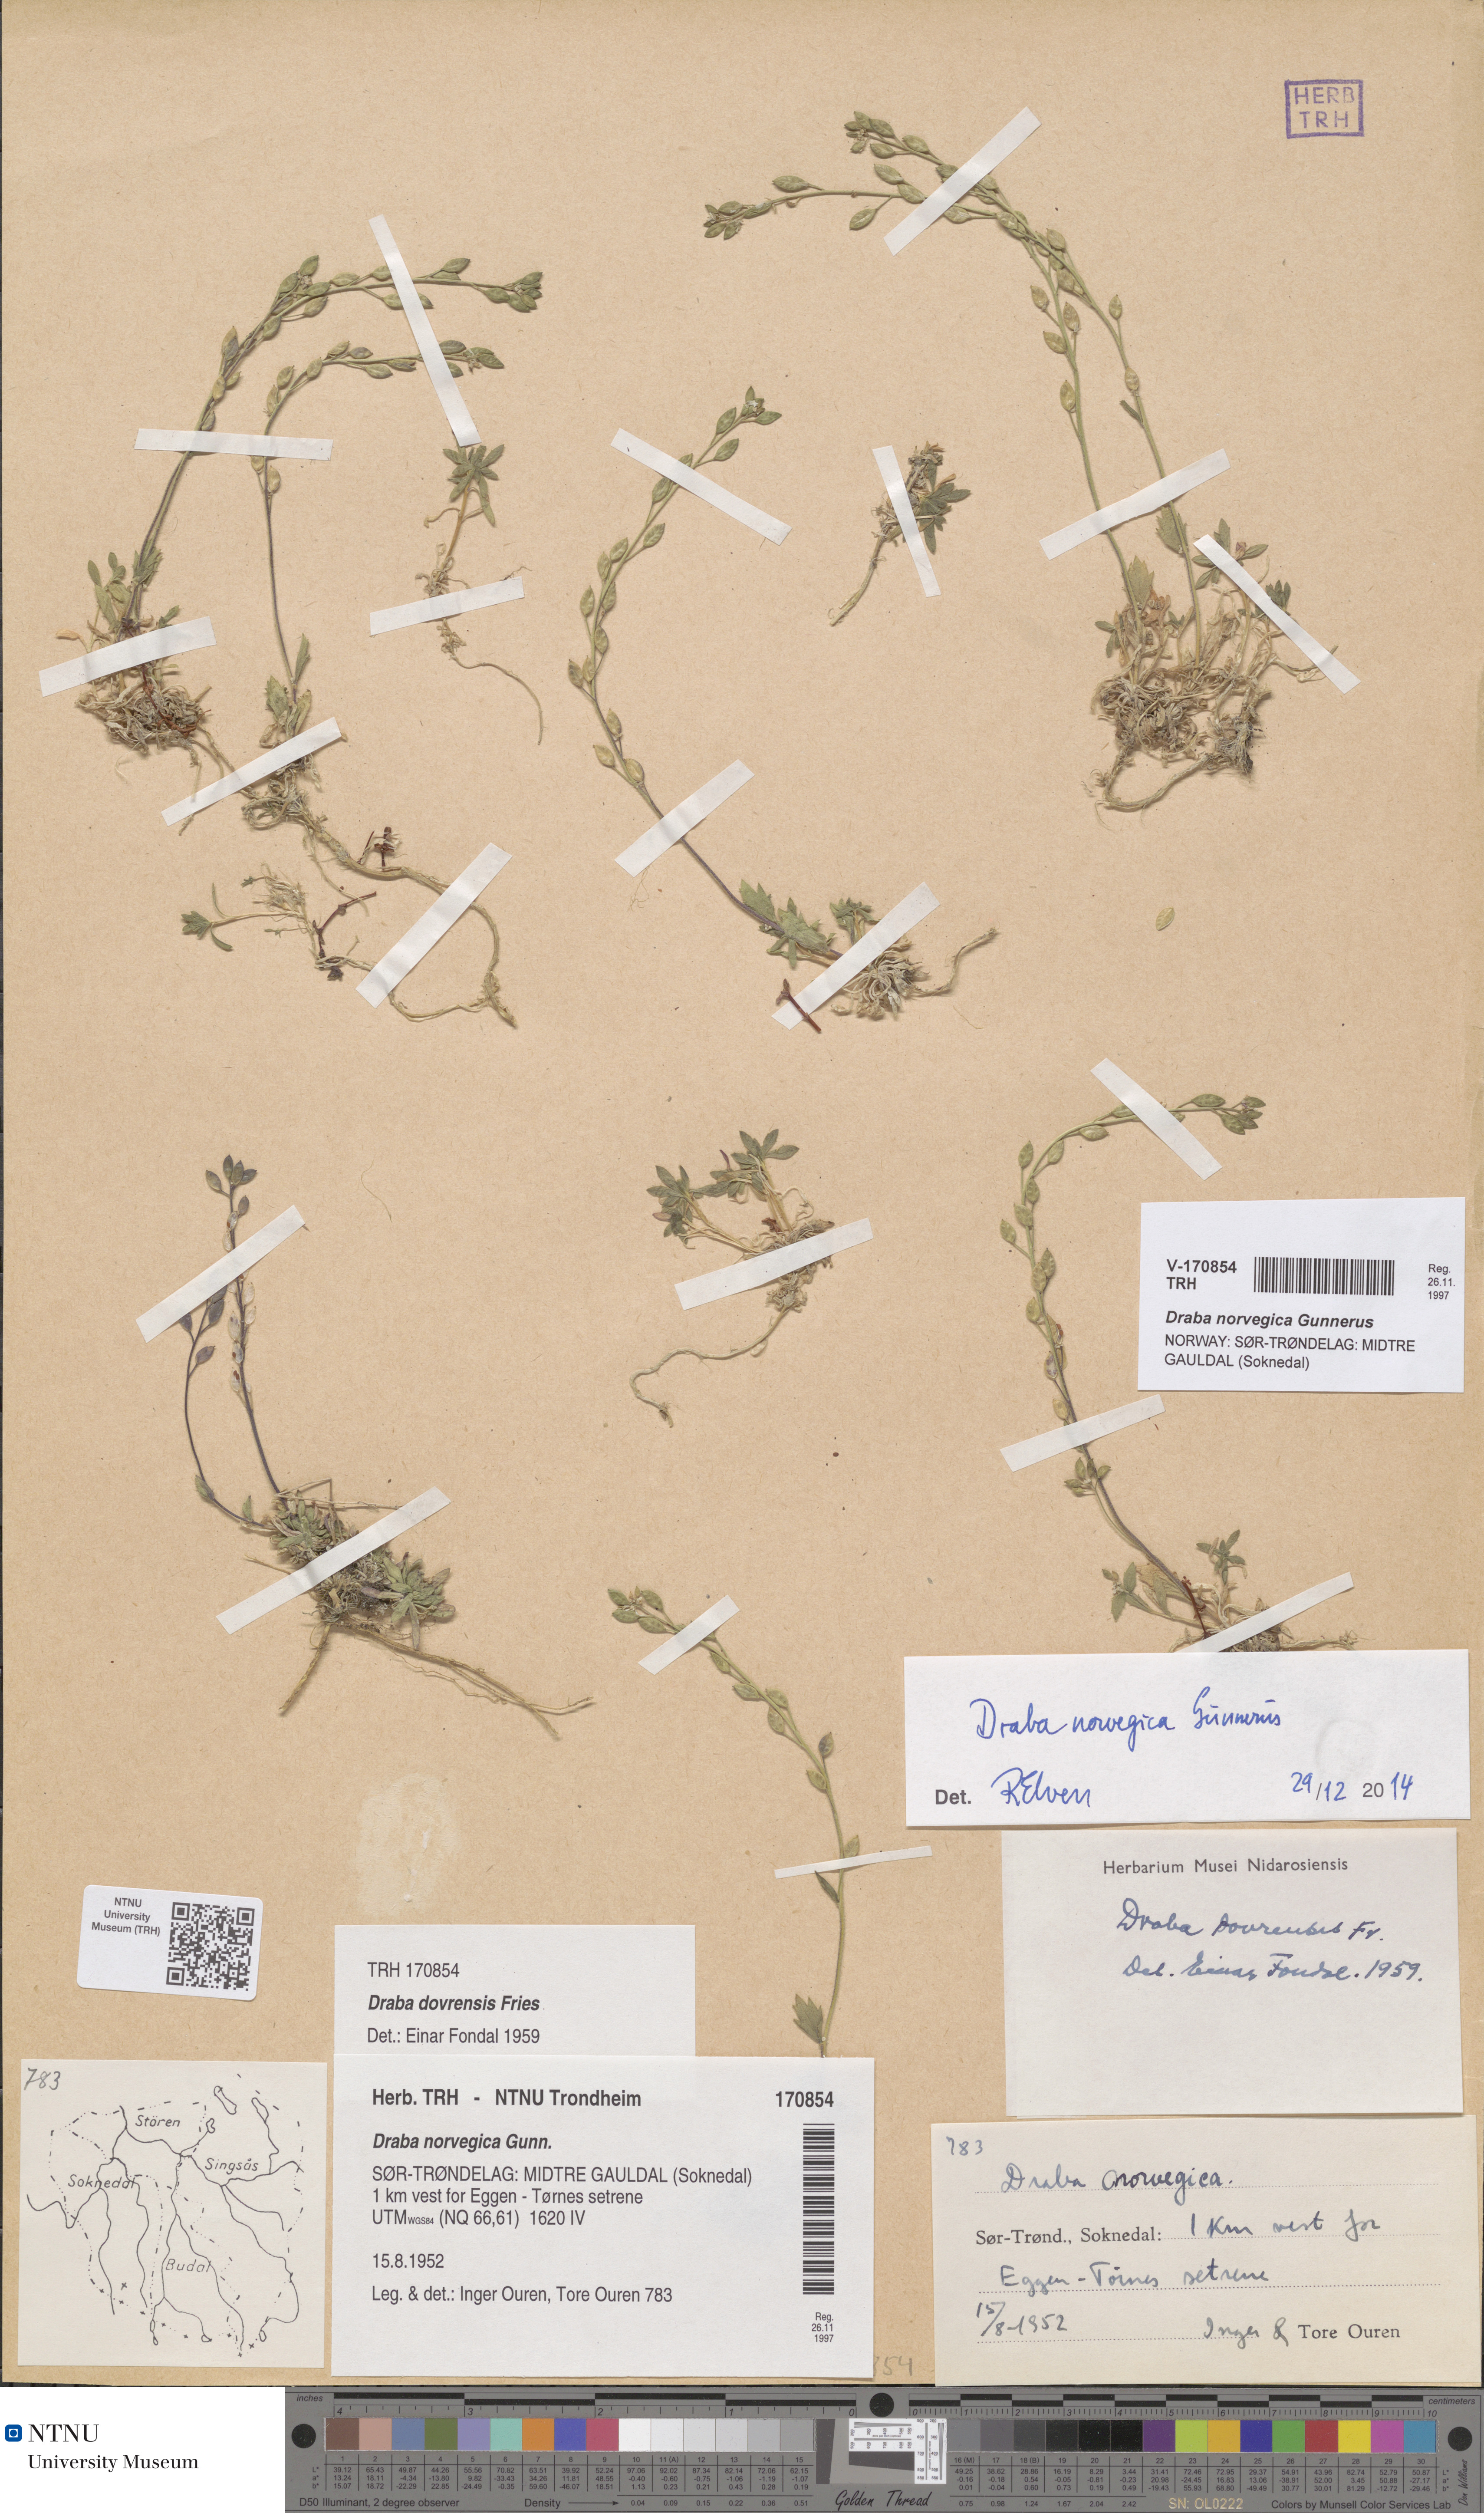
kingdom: Plantae
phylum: Tracheophyta
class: Magnoliopsida
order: Brassicales
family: Brassicaceae
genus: Draba
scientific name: Draba norvegica
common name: Rock whitlowgrass
